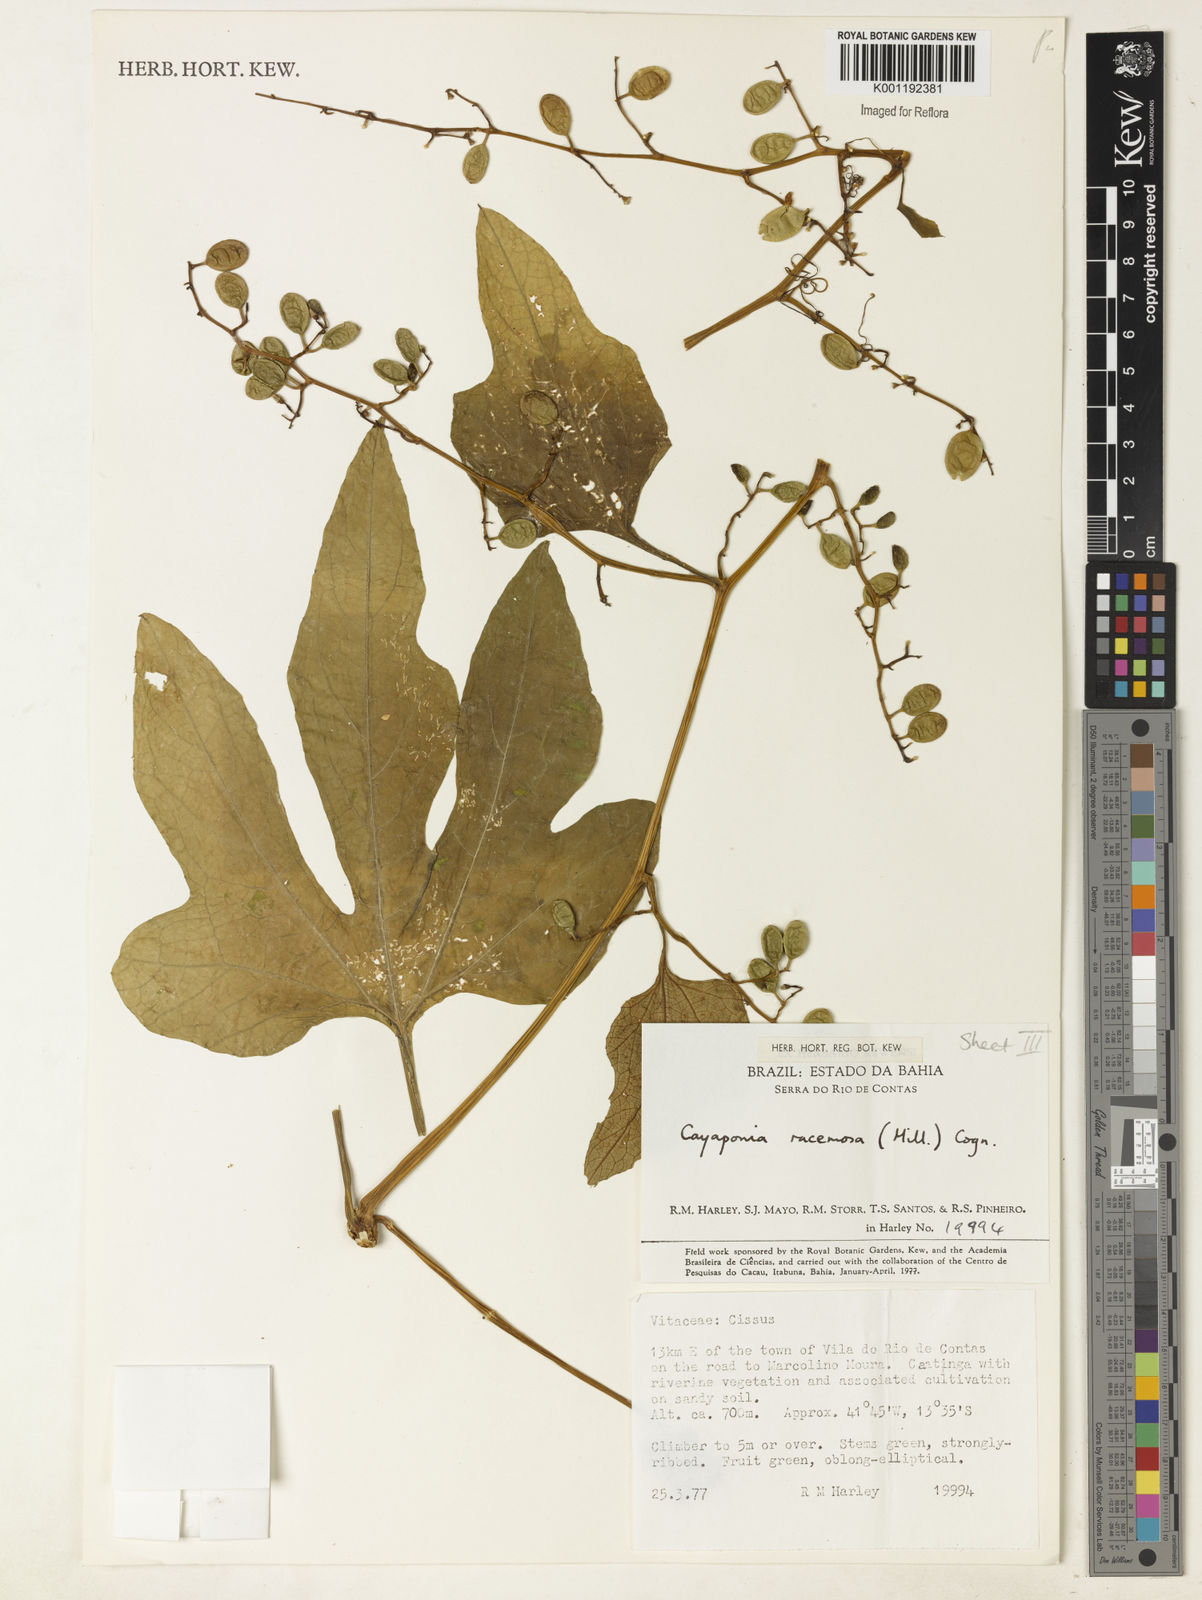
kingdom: Plantae
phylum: Tracheophyta
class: Magnoliopsida
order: Cucurbitales
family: Cucurbitaceae
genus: Cayaponia
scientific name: Cayaponia racemosa
